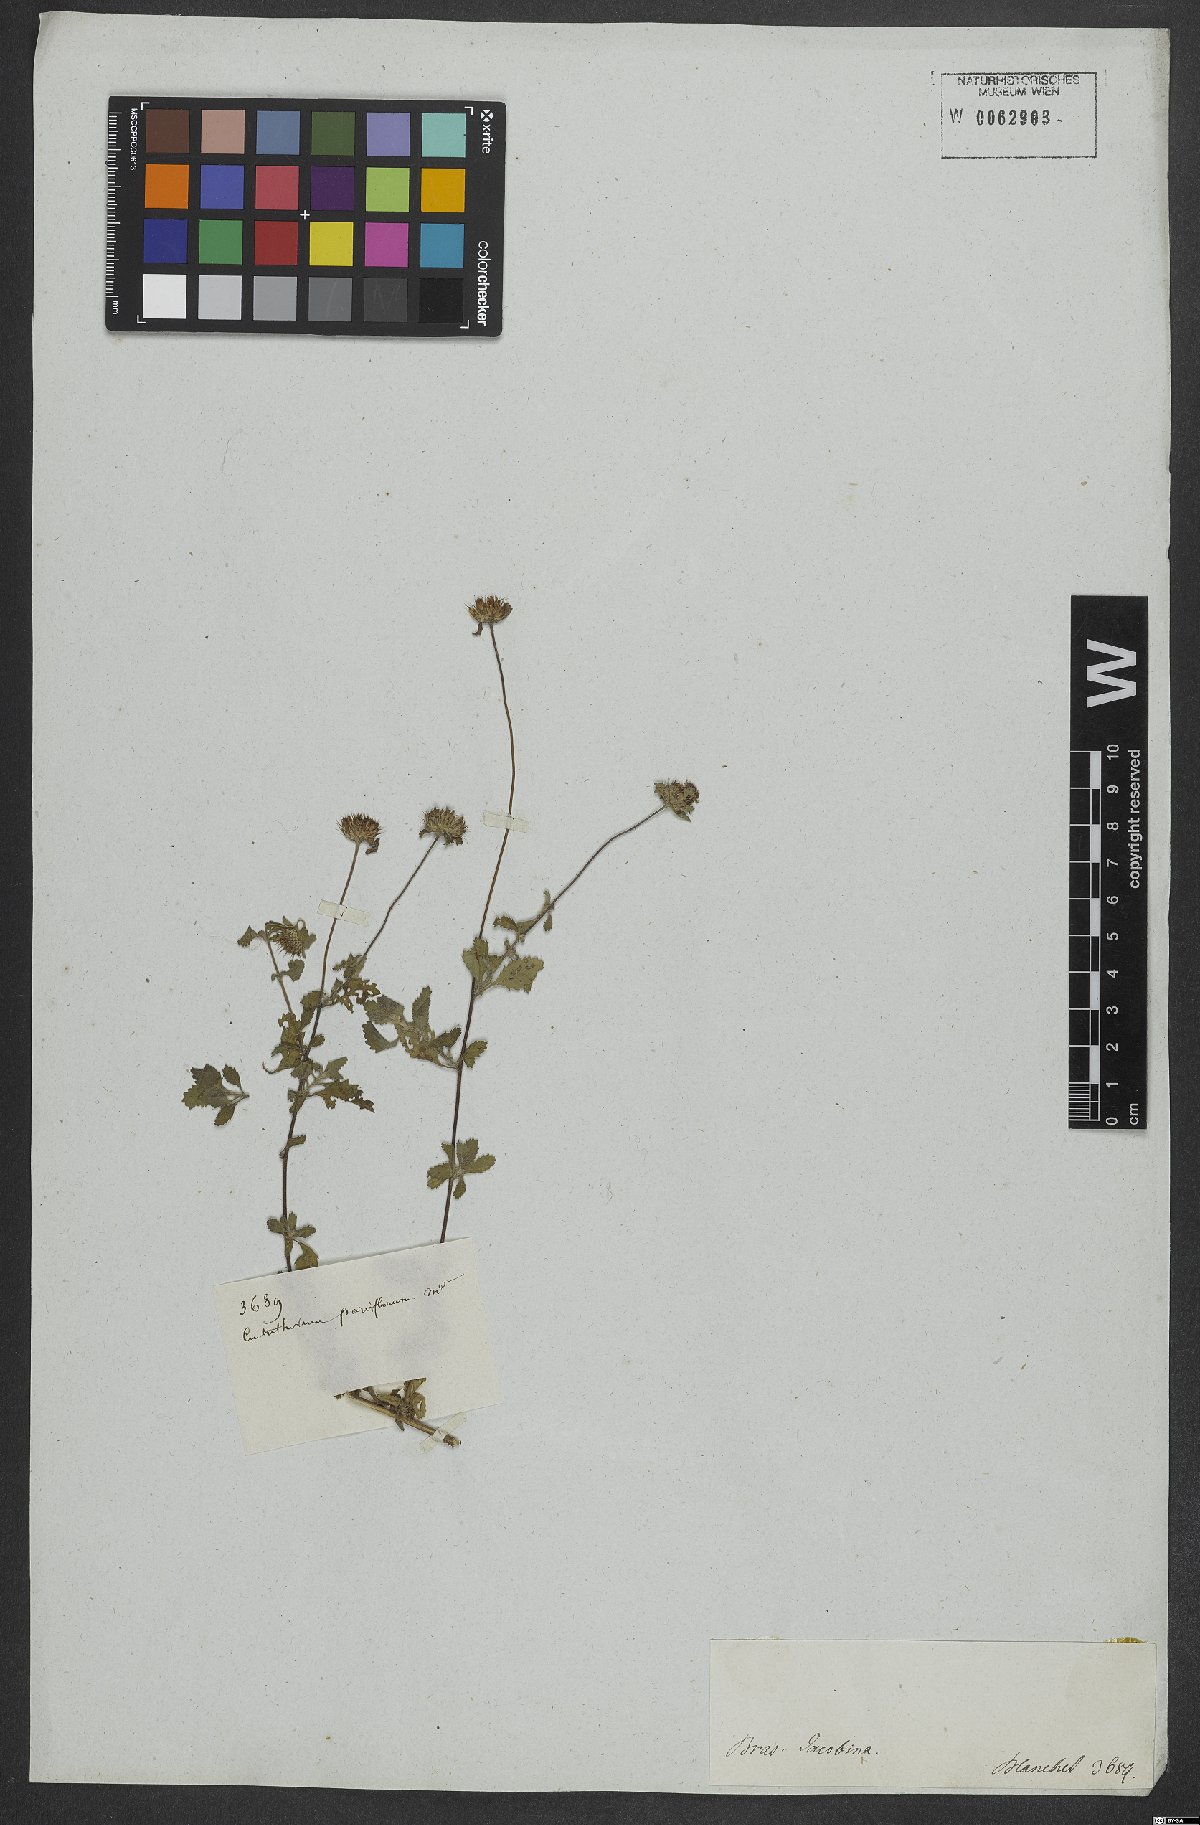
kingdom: Plantae
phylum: Tracheophyta
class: Magnoliopsida
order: Asterales
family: Asteraceae
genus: Centratherum
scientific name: Centratherum punctatum
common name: Larkdaisy
